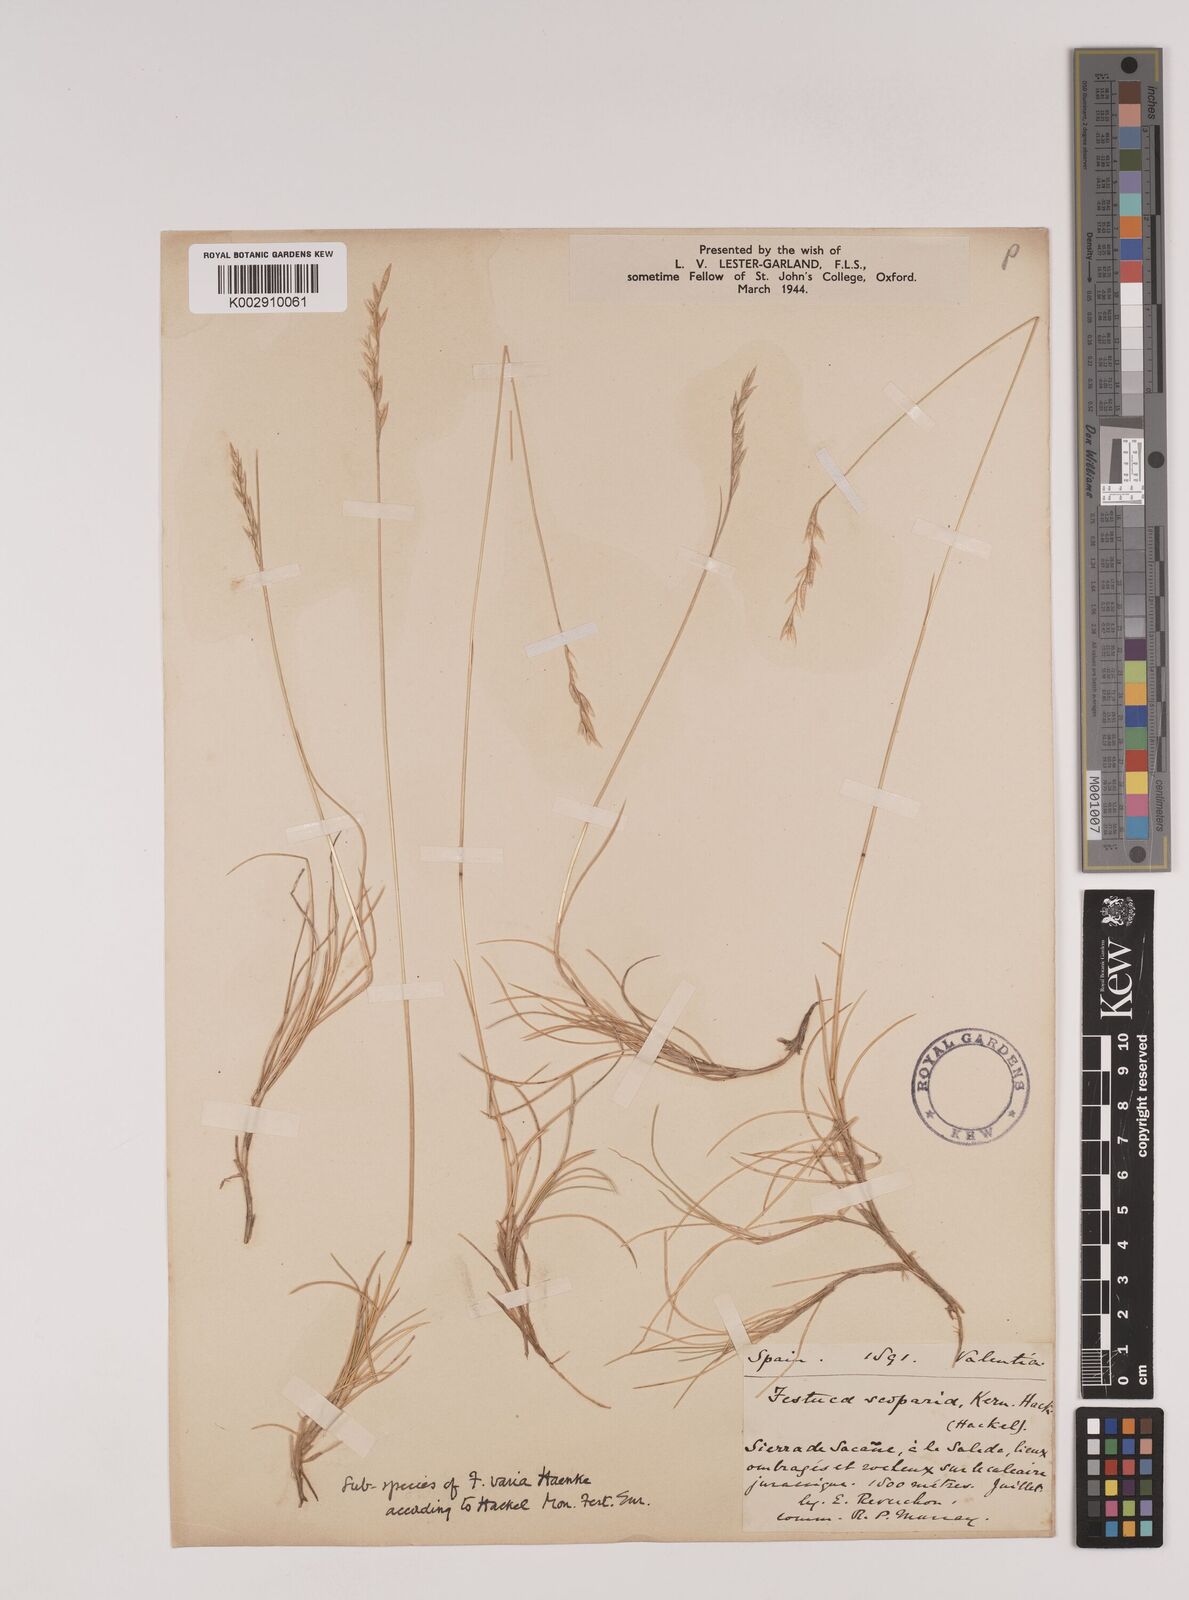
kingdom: Plantae
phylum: Tracheophyta
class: Liliopsida
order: Poales
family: Poaceae
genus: Festuca
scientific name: Festuca gautieri
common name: Spiky fescue
